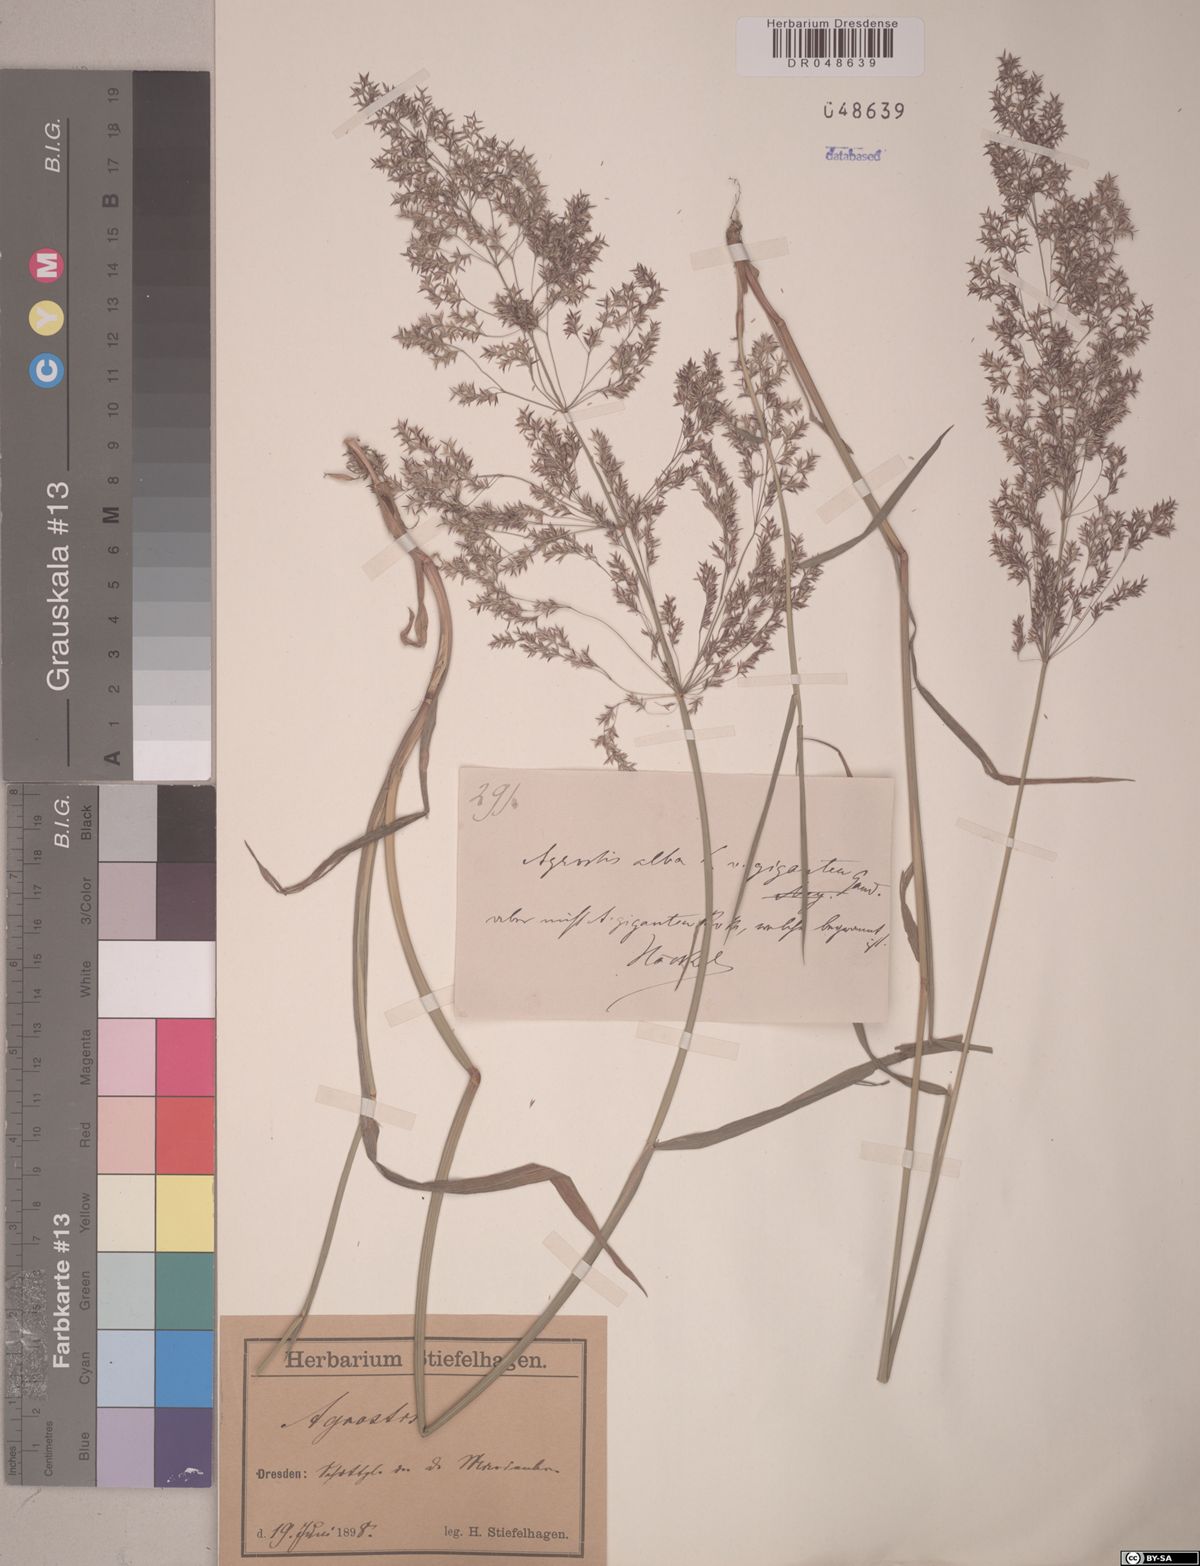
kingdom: Plantae
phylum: Tracheophyta
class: Liliopsida
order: Poales
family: Poaceae
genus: Agrostis
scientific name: Agrostis
